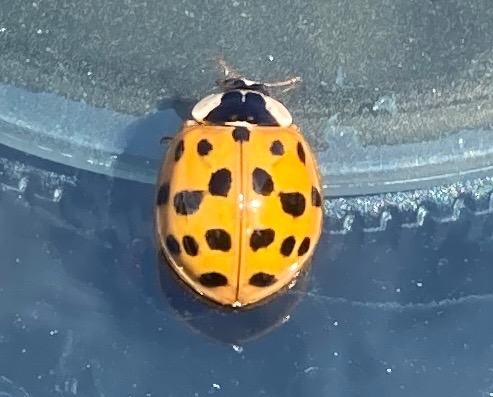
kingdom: Animalia
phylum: Arthropoda
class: Insecta
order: Coleoptera
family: Coccinellidae
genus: Harmonia
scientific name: Harmonia axyridis
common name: Harlekinmariehøne
